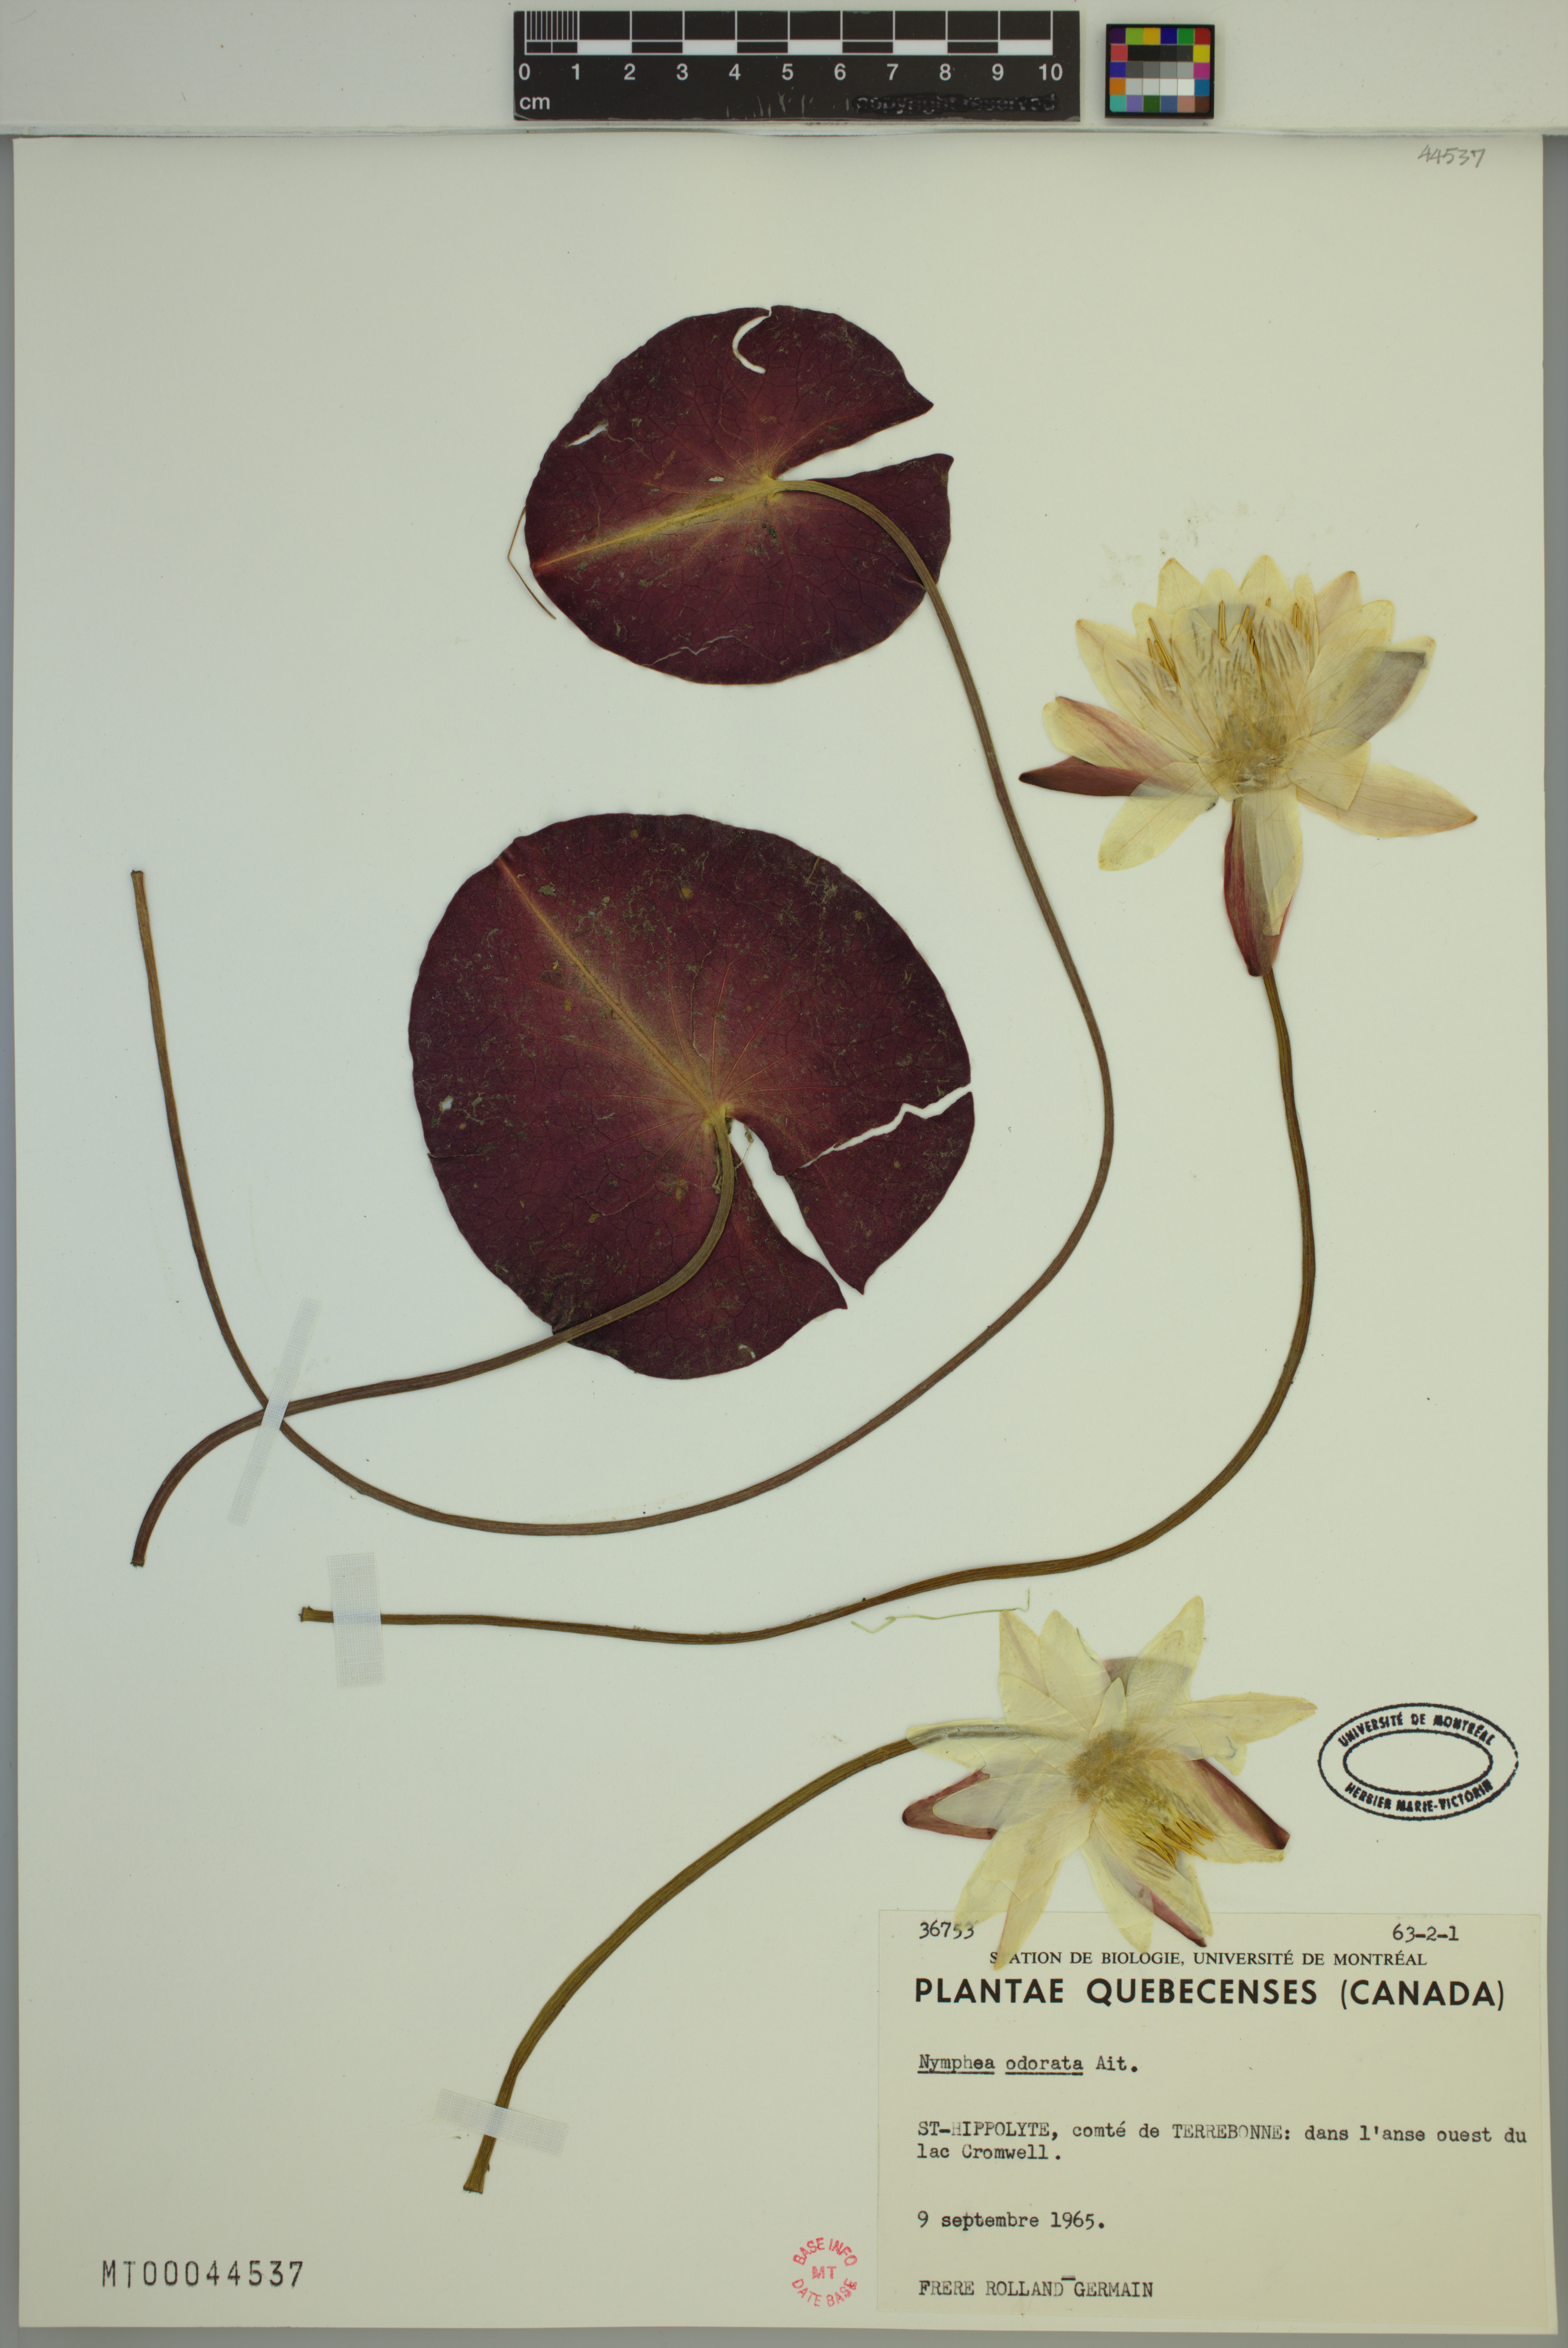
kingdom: Plantae
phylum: Tracheophyta
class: Magnoliopsida
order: Nymphaeales
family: Nymphaeaceae
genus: Nymphaea
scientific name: Nymphaea odorata
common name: Fragrant water-lily
